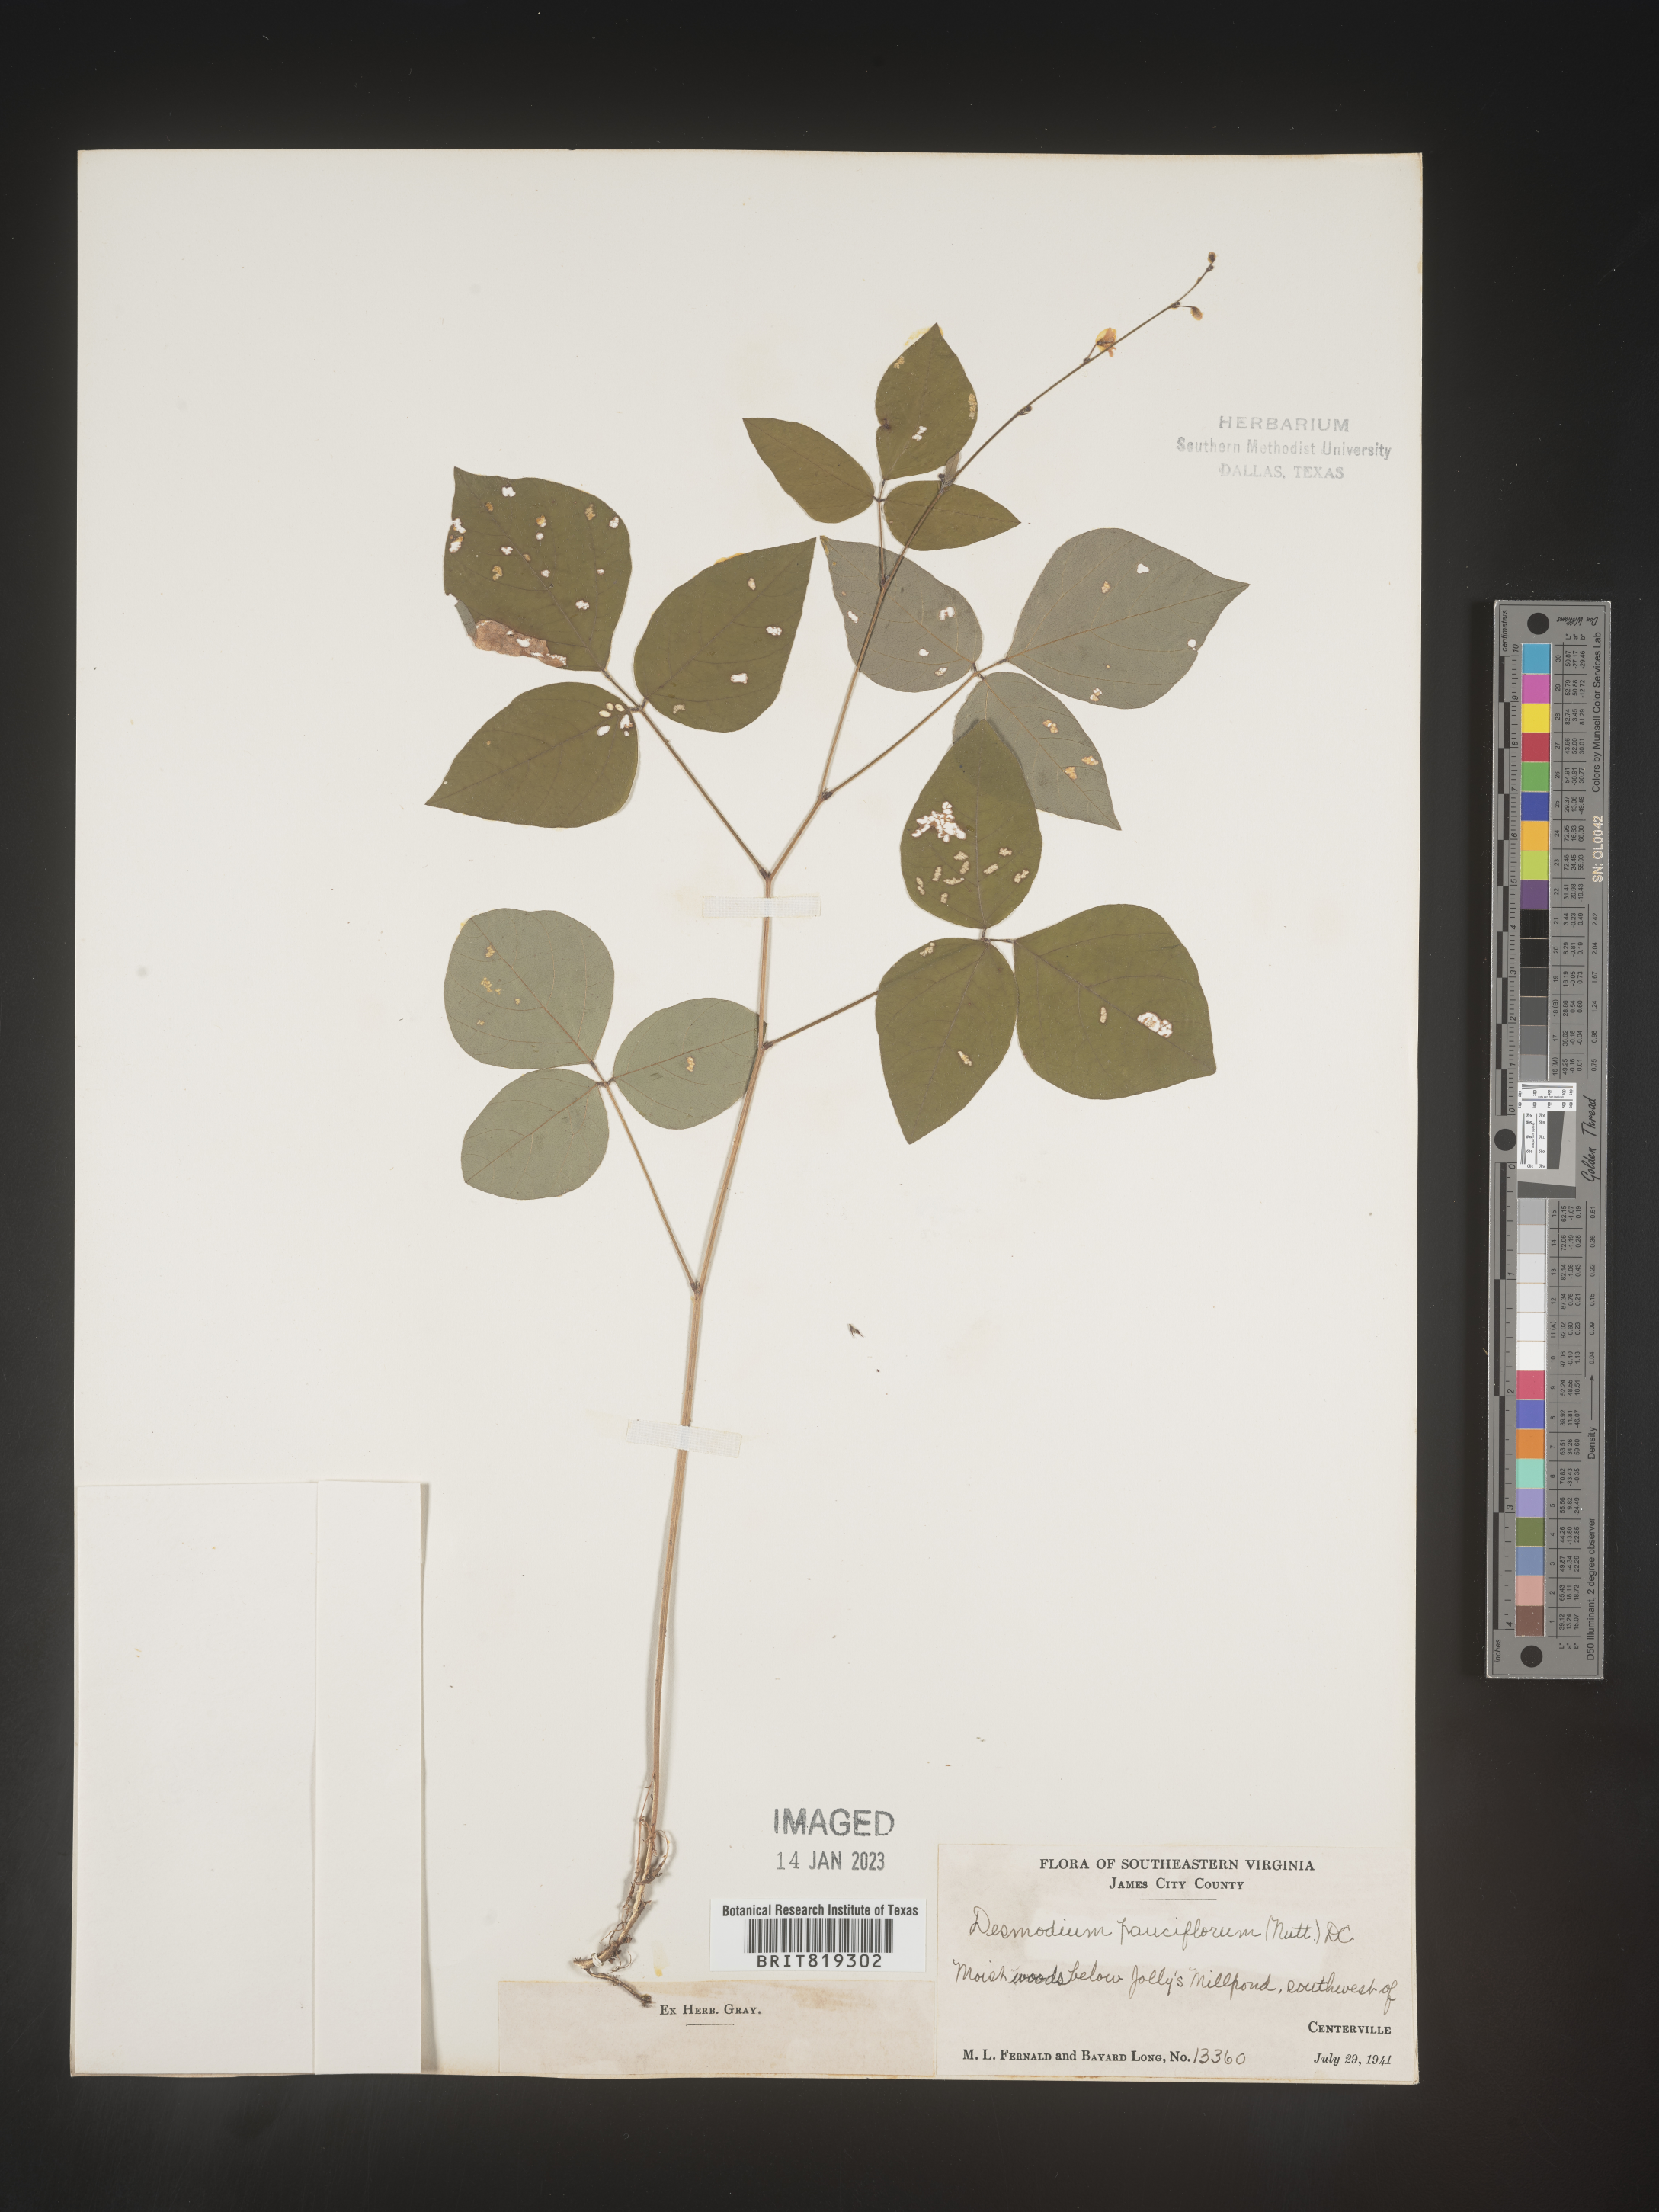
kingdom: Plantae
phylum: Tracheophyta
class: Magnoliopsida
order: Fabales
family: Fabaceae
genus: Hylodesmum
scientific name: Hylodesmum pauciflorum
